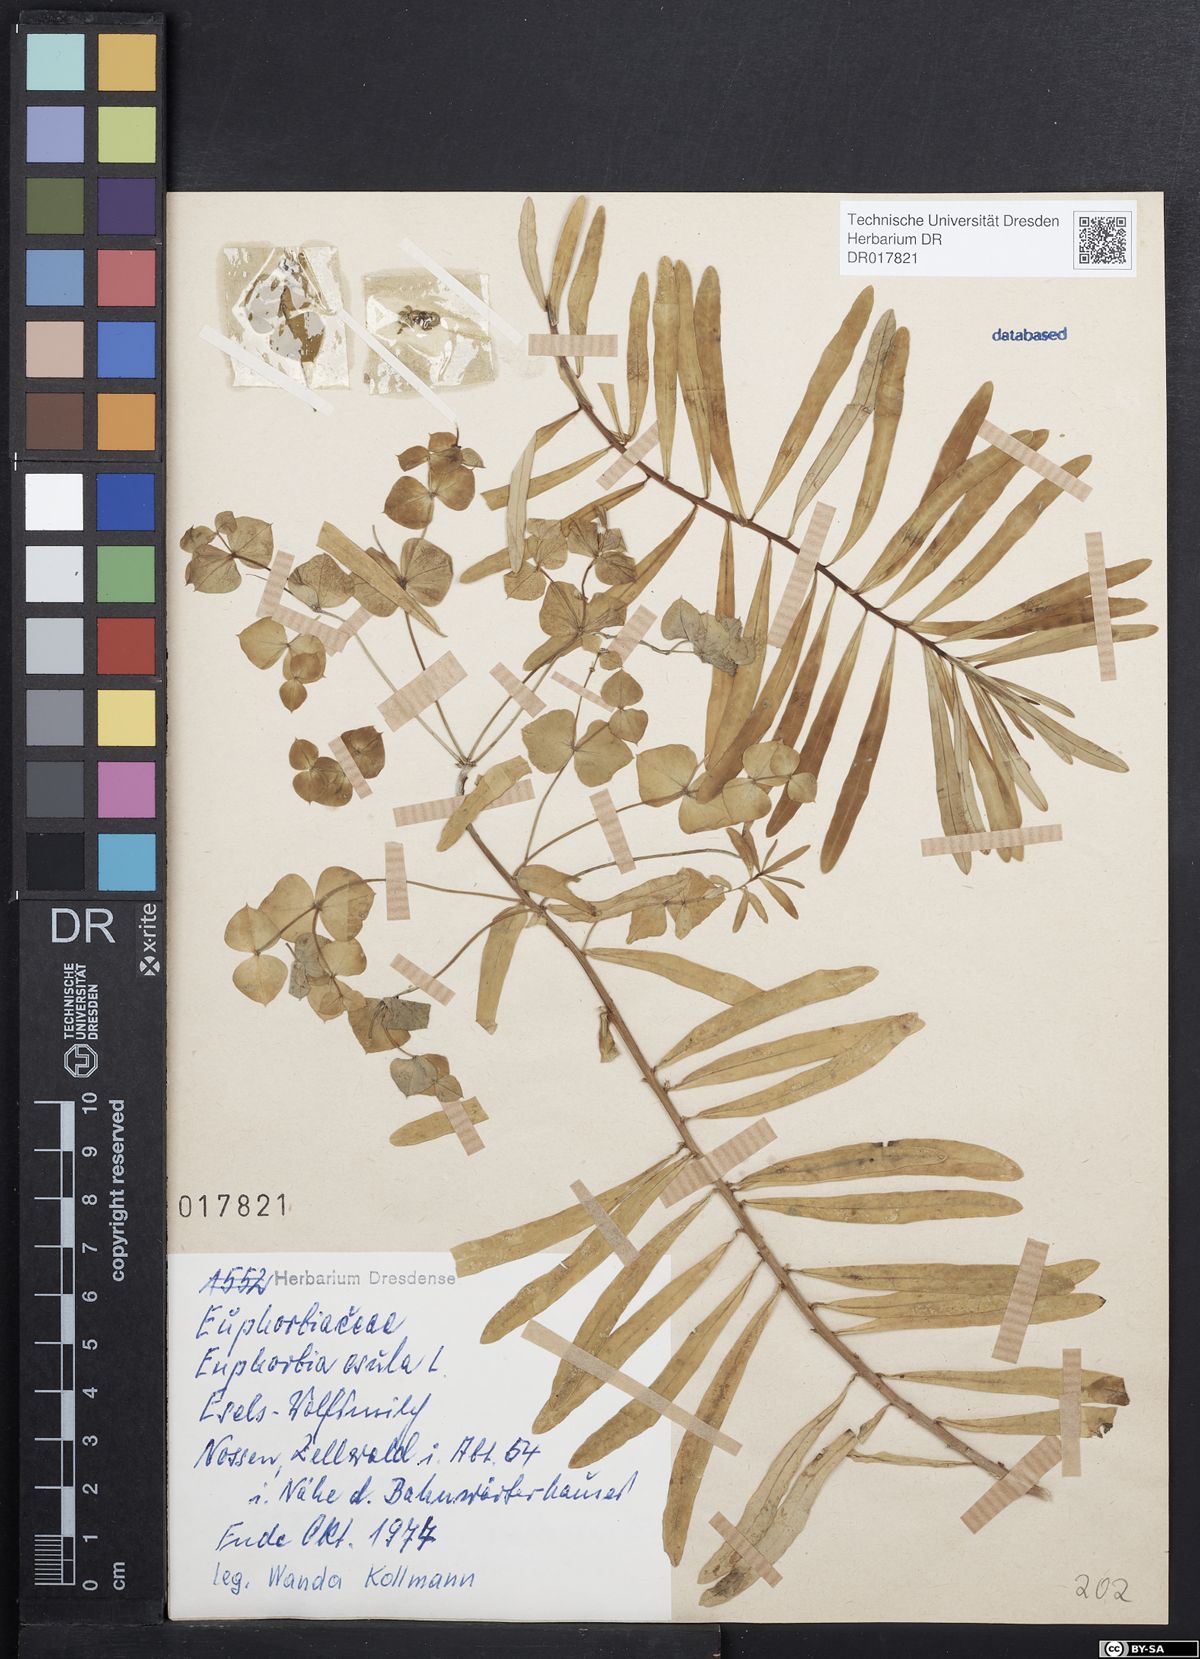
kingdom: Plantae
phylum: Tracheophyta
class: Magnoliopsida
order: Malpighiales
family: Euphorbiaceae
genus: Euphorbia
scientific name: Euphorbia esula
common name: Leafy spurge
